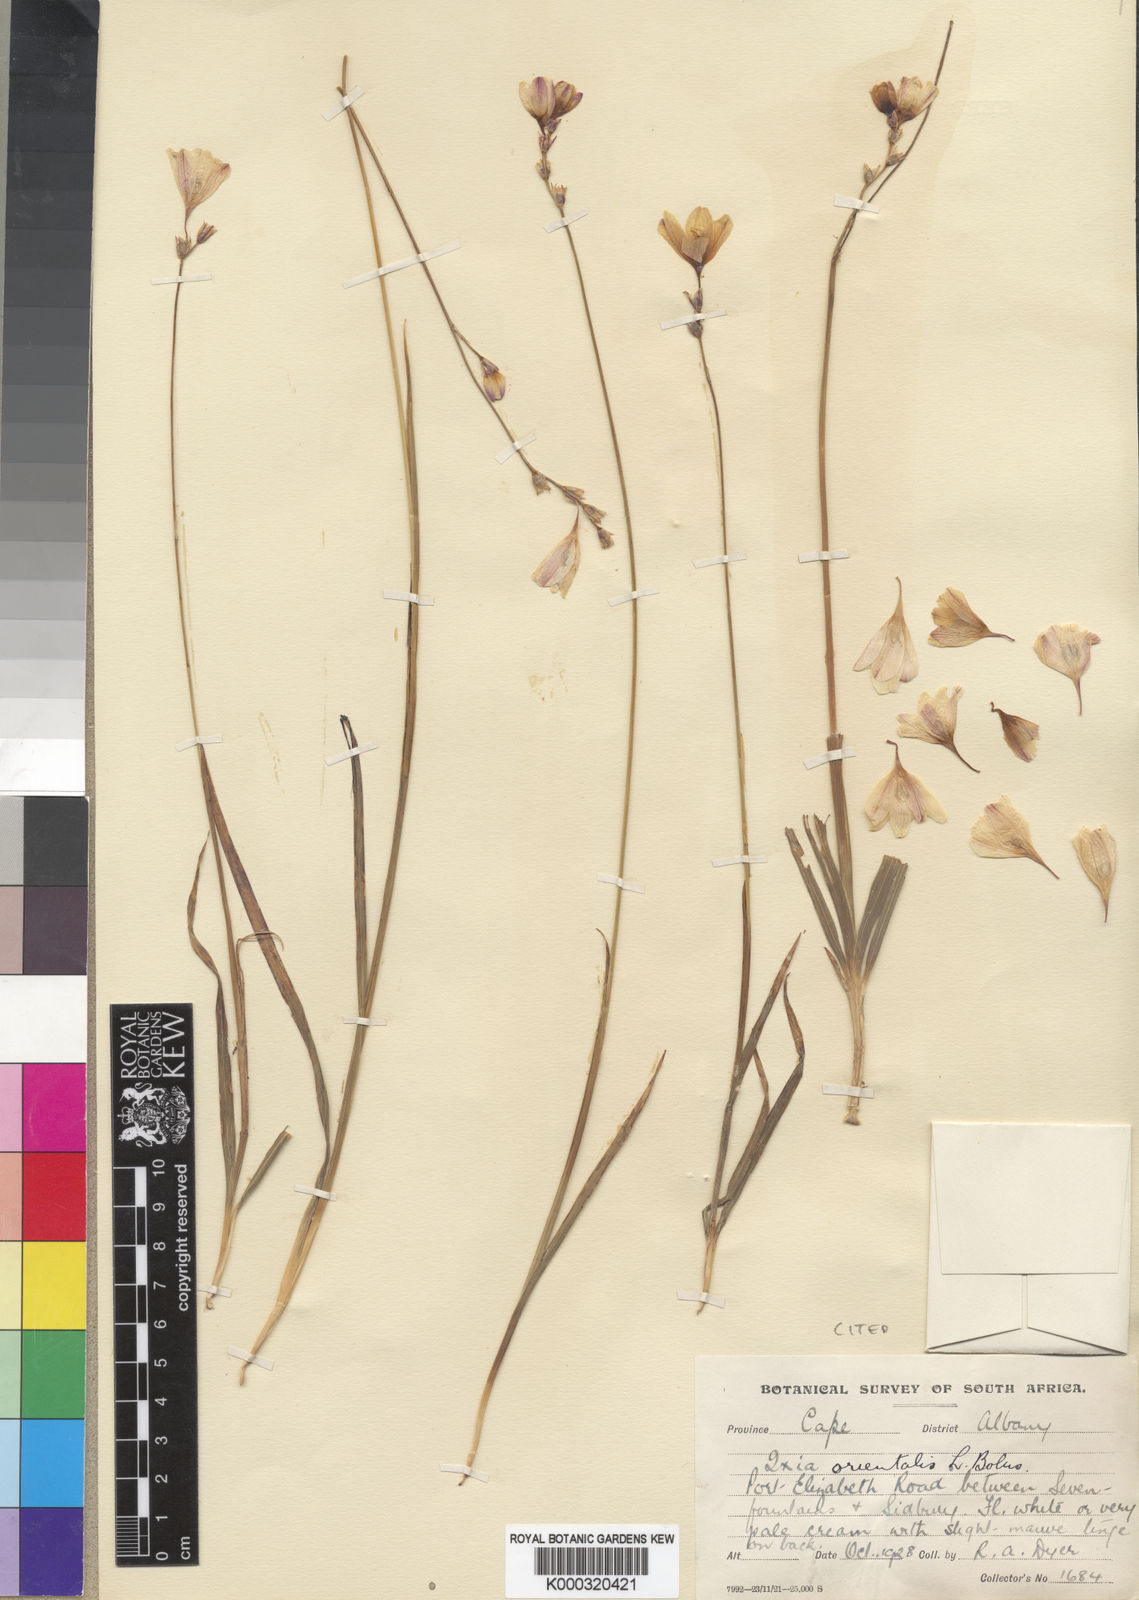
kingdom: Plantae
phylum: Tracheophyta
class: Liliopsida
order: Asparagales
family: Iridaceae
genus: Ixia
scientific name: Ixia orientalis
